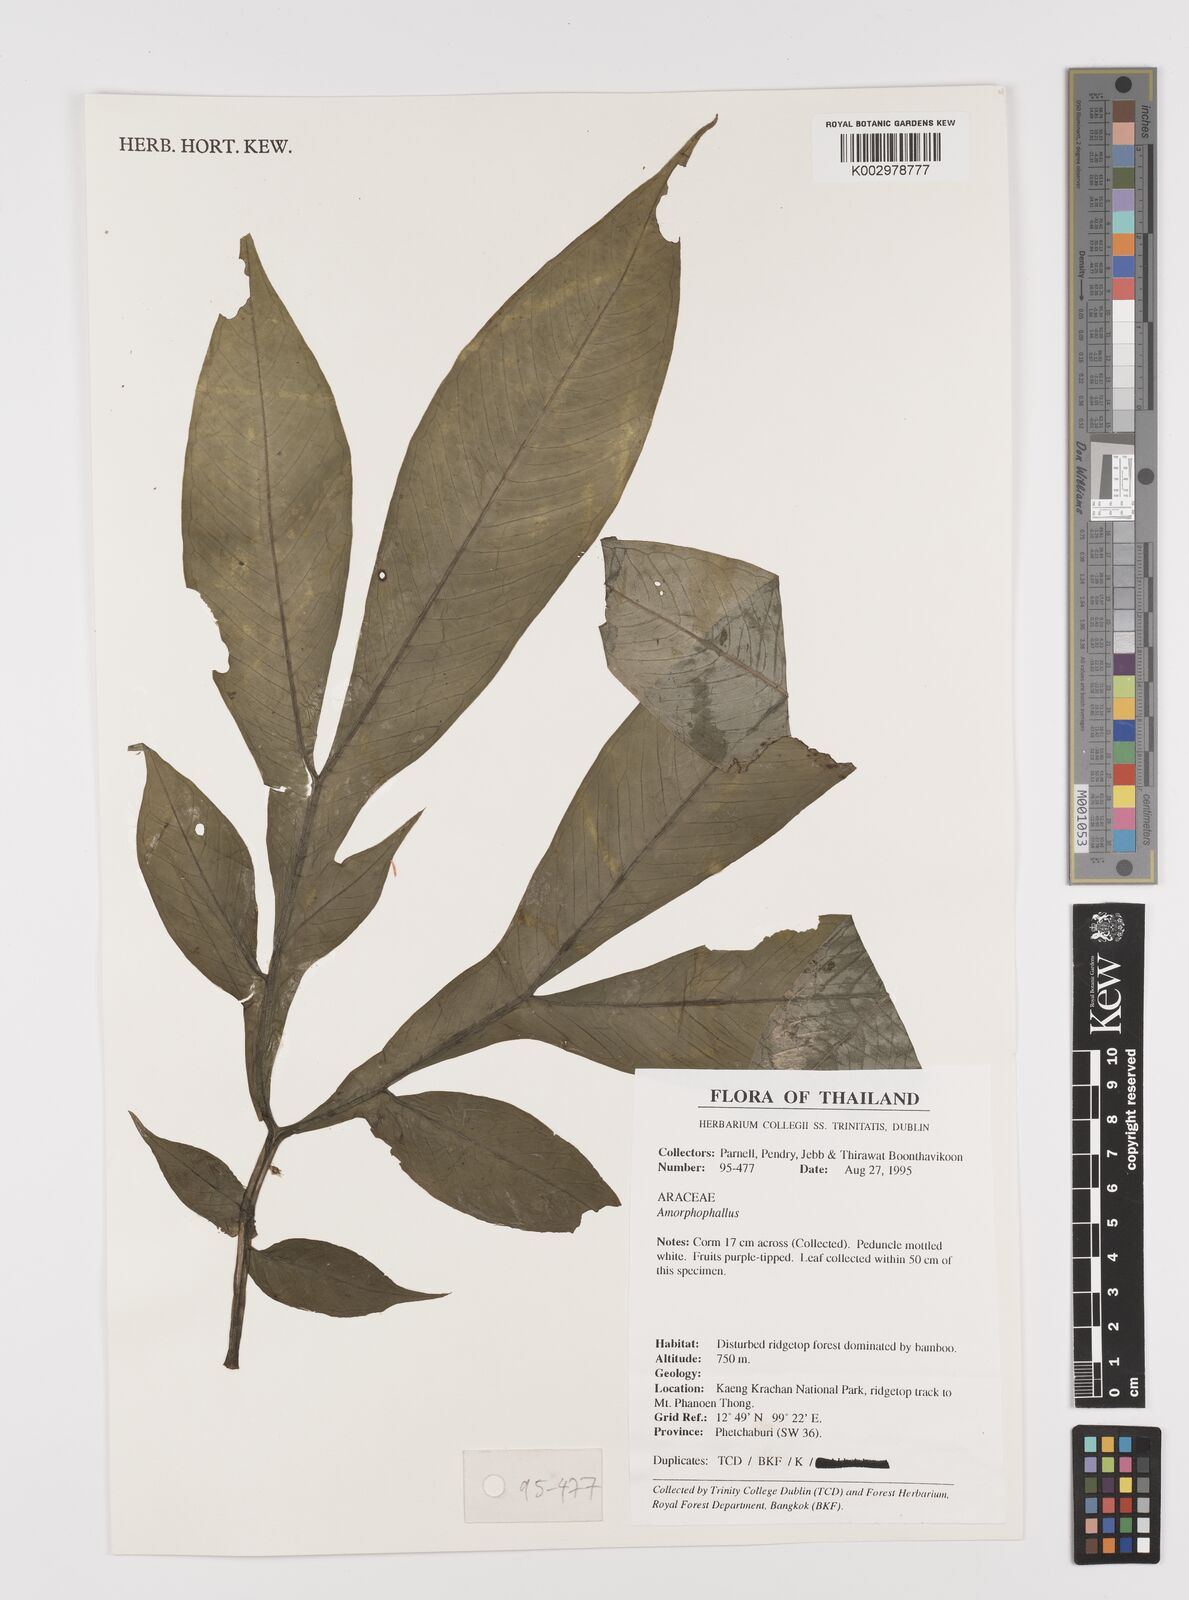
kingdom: Plantae
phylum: Tracheophyta
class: Liliopsida
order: Alismatales
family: Araceae
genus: Amorphophallus
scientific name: Amorphophallus
